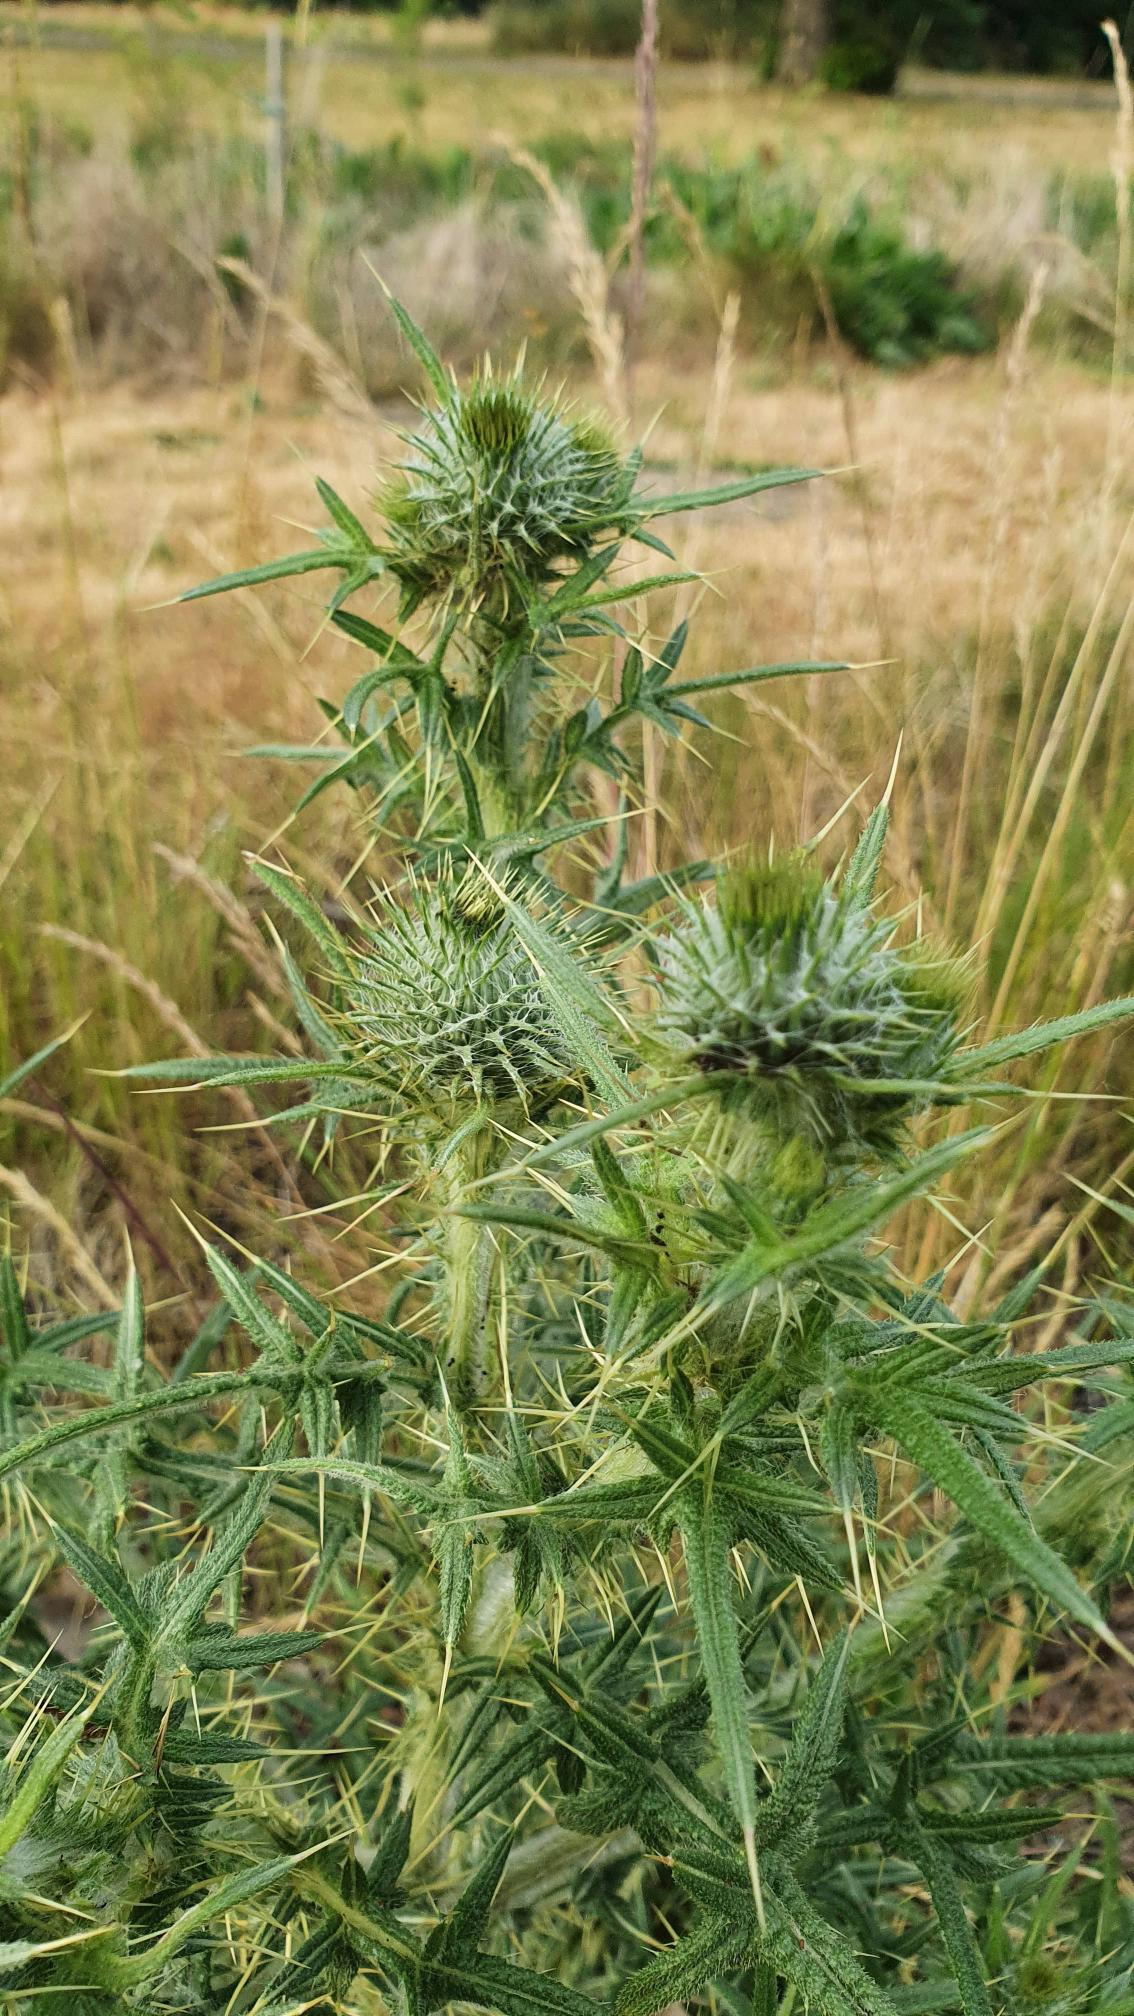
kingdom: Plantae
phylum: Tracheophyta
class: Magnoliopsida
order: Asterales
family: Asteraceae
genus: Cirsium
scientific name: Cirsium vulgare
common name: Horse-tidsel
